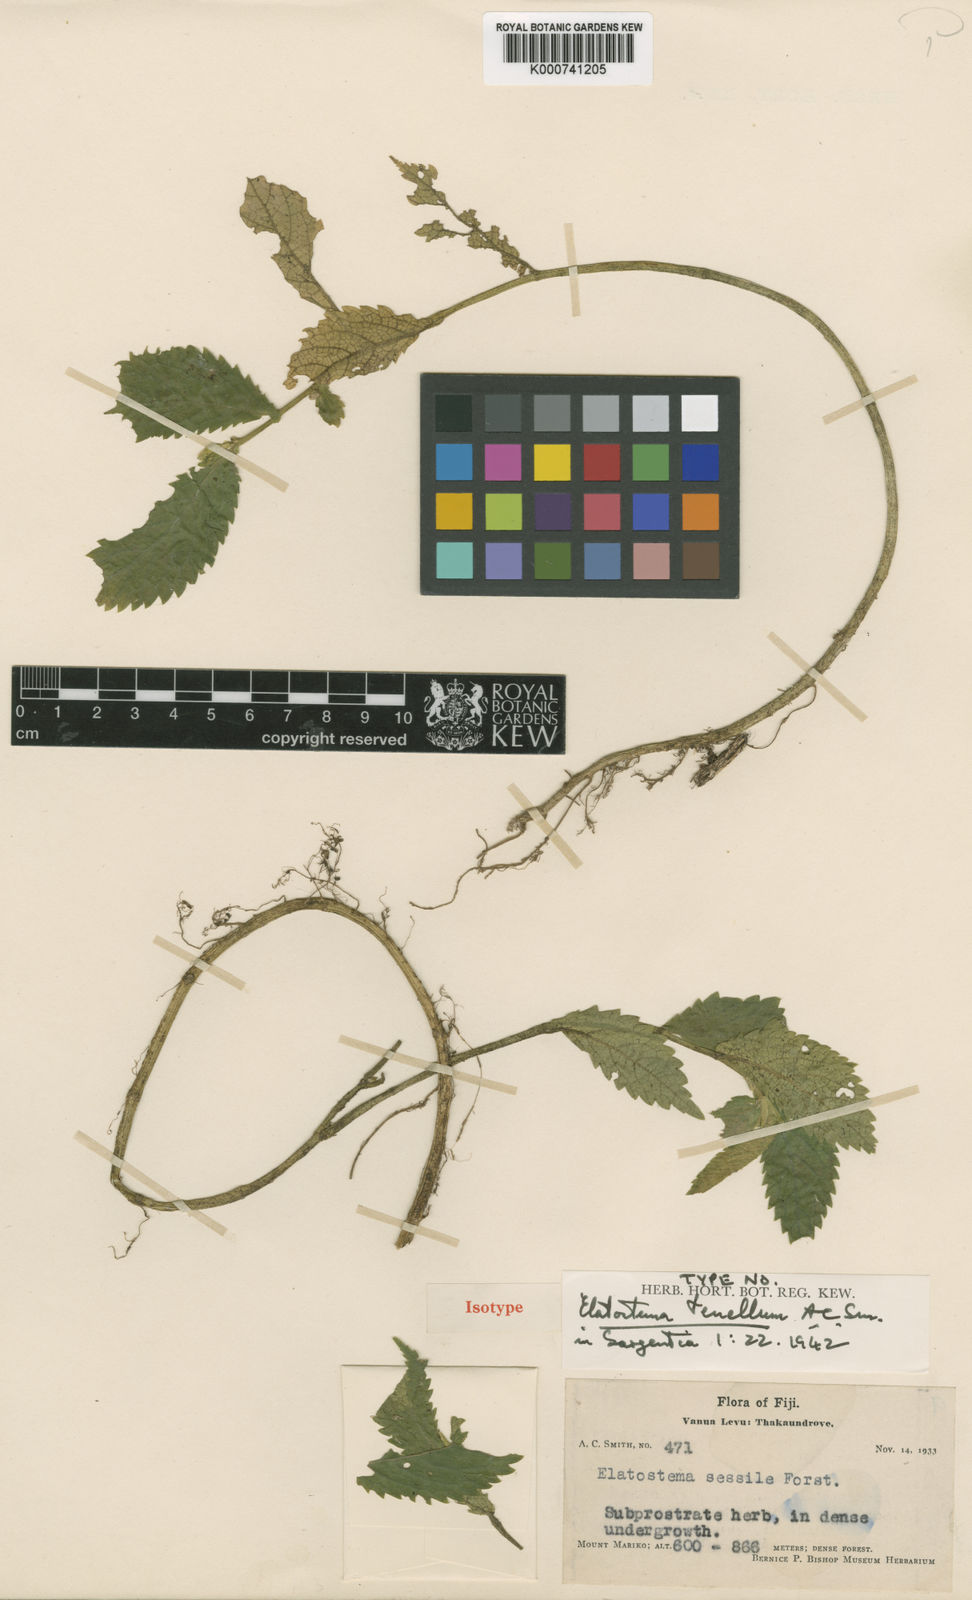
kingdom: Plantae
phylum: Tracheophyta
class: Magnoliopsida
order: Rosales
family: Urticaceae
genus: Elatostema
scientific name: Elatostema tenellum
